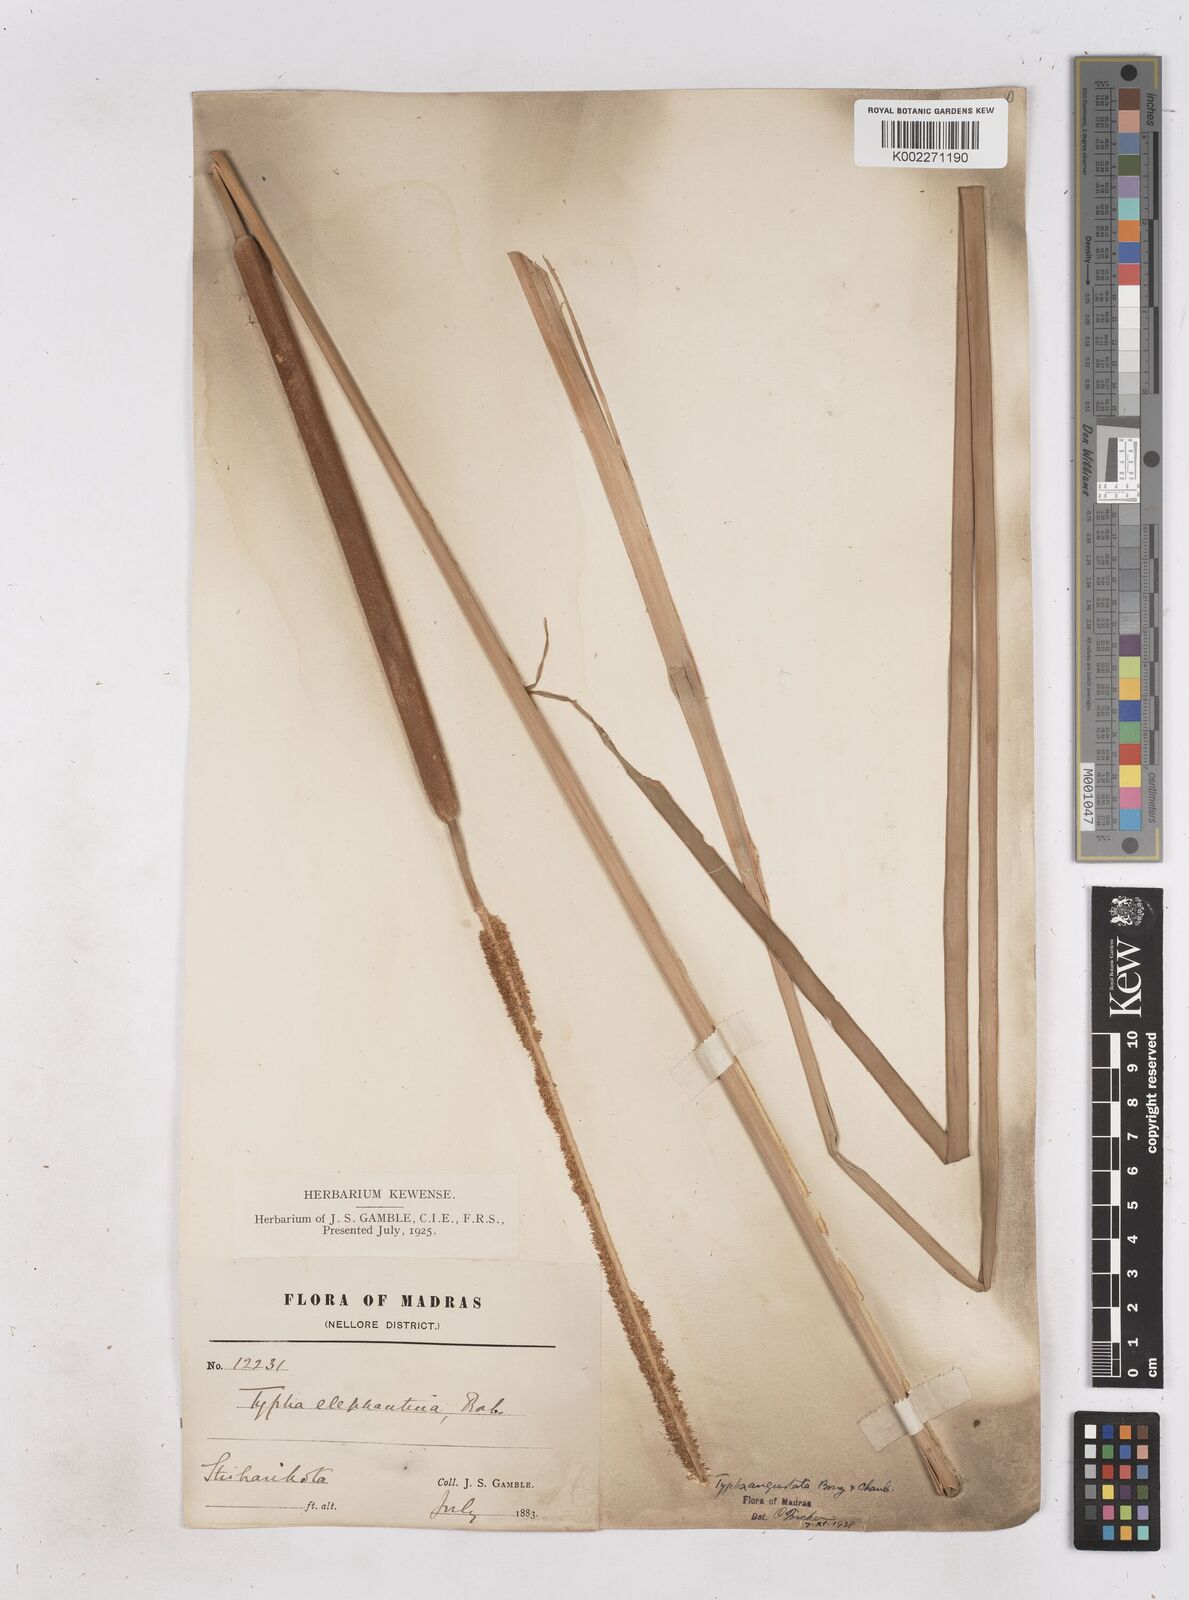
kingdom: Plantae
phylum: Tracheophyta
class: Liliopsida
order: Poales
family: Typhaceae
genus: Typha
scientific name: Typha domingensis
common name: Southern cattail
